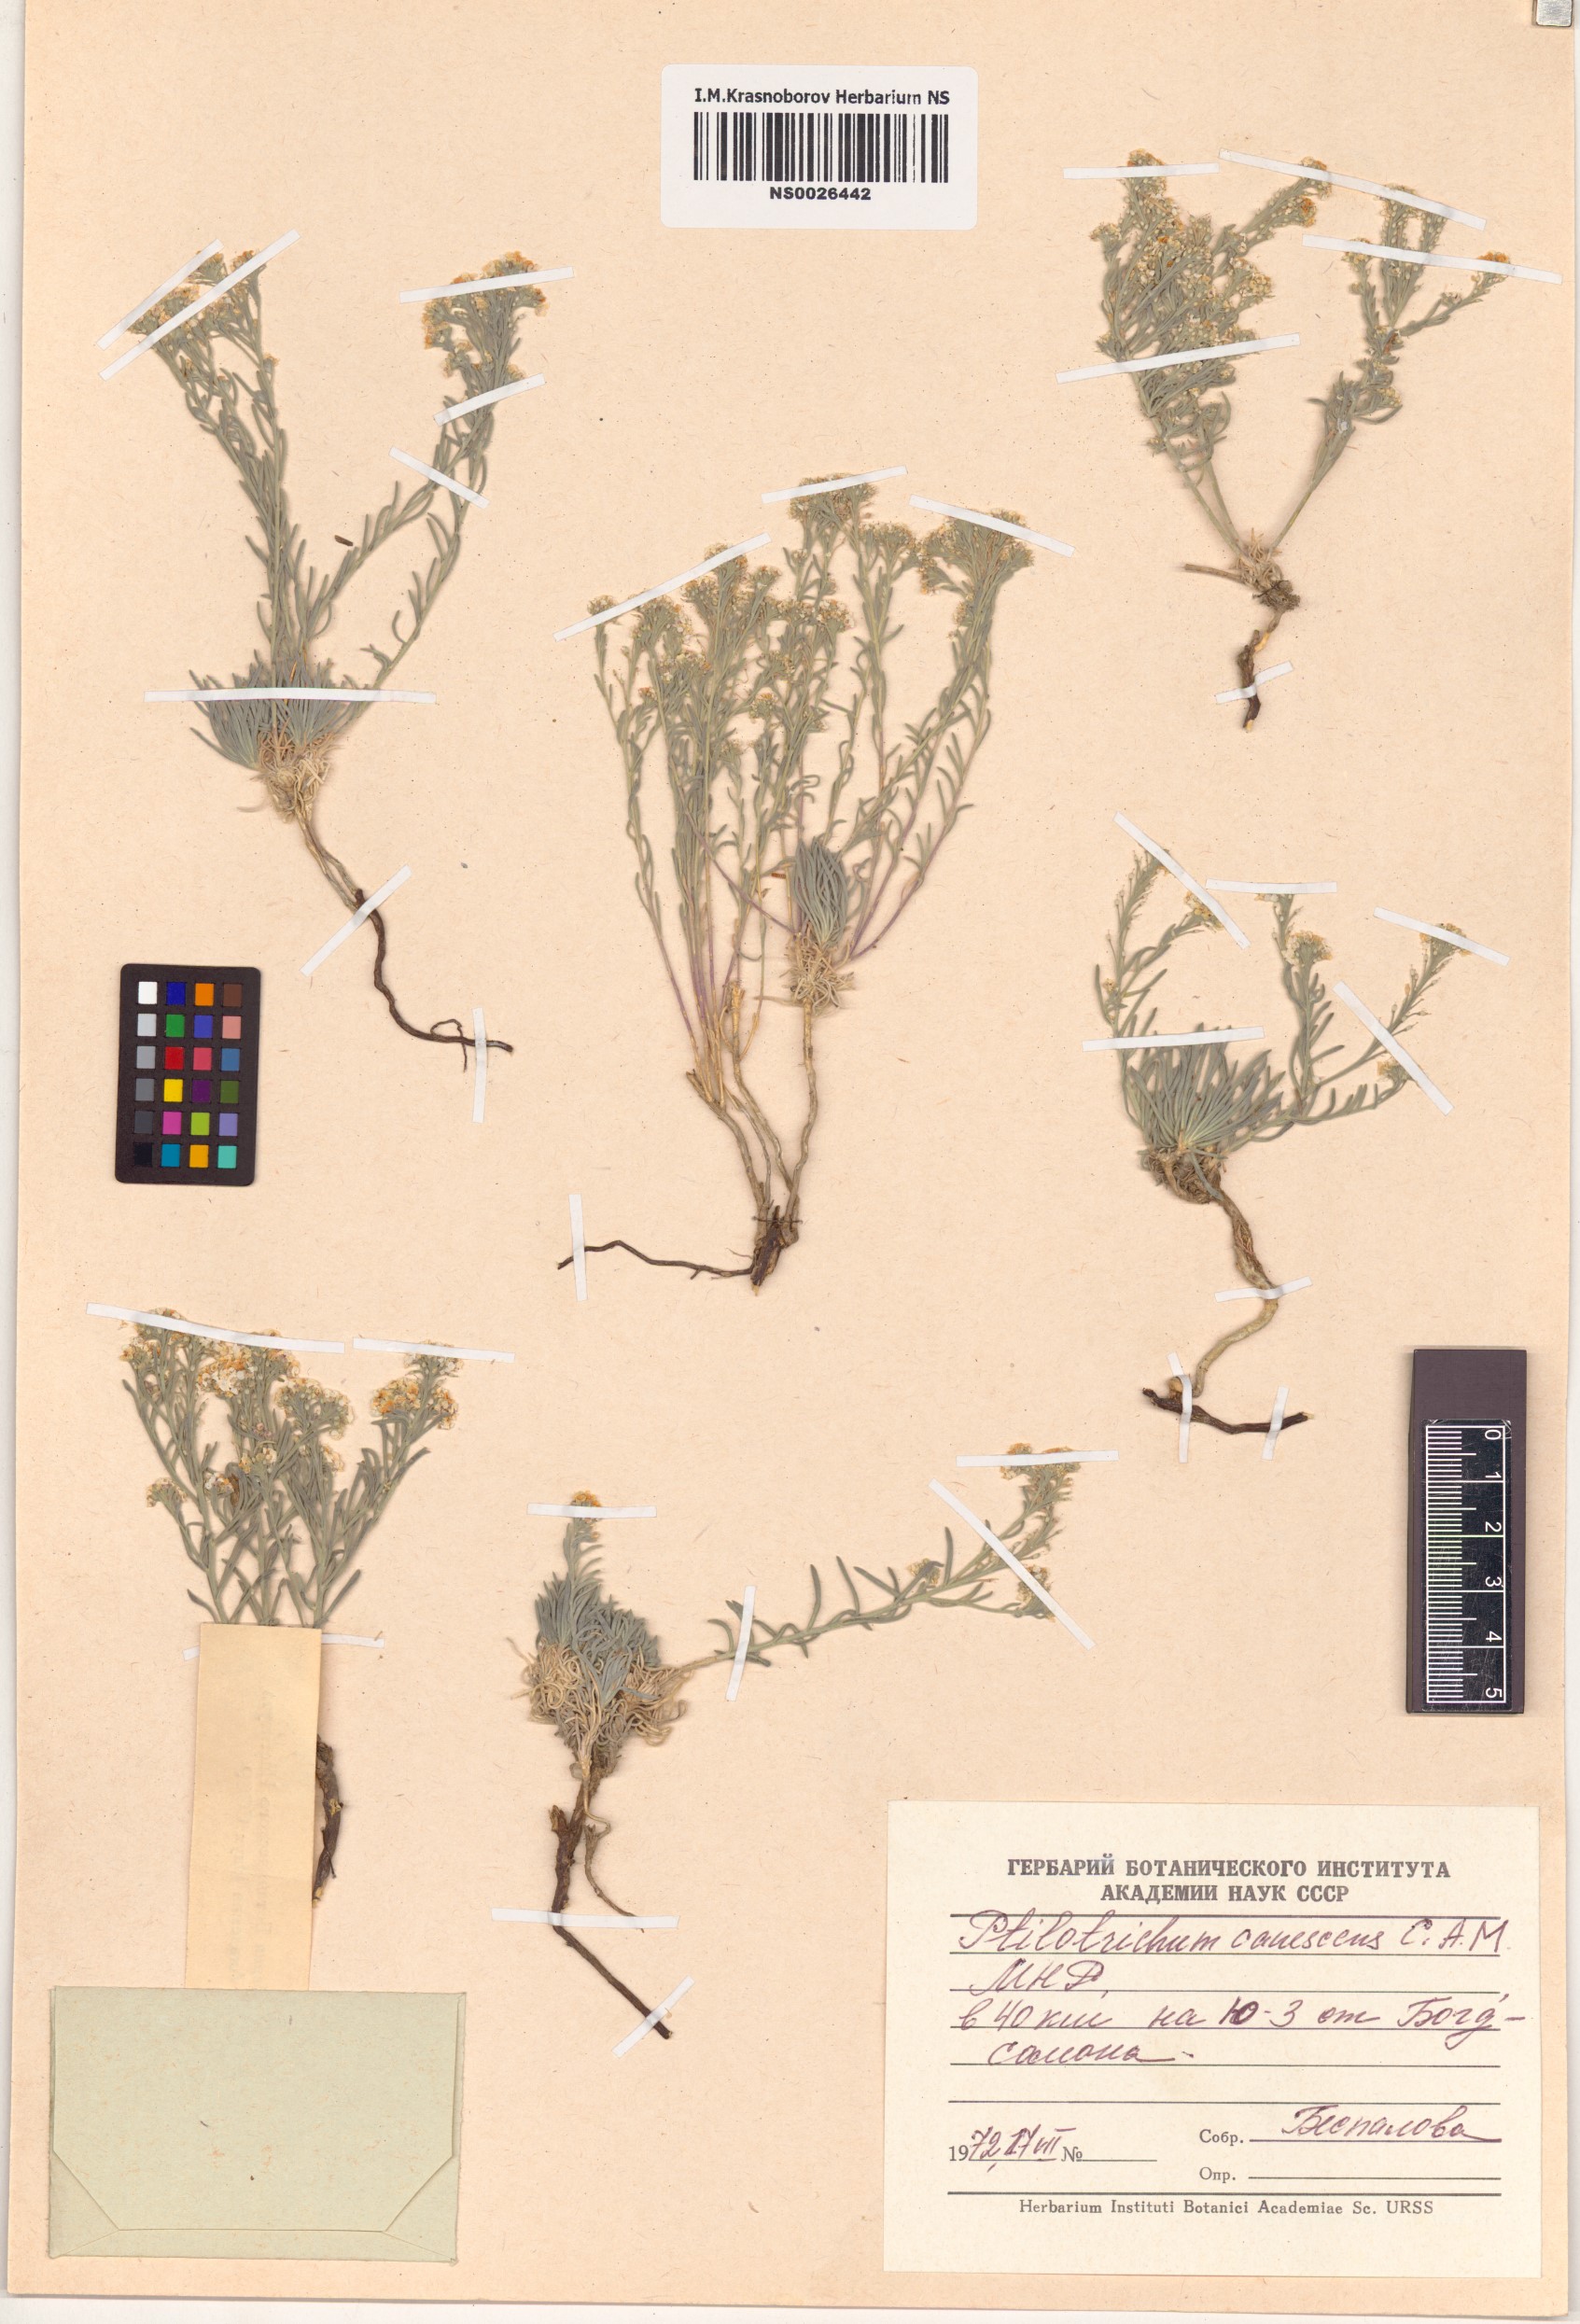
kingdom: Plantae
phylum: Tracheophyta
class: Magnoliopsida
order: Brassicales
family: Brassicaceae
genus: Stevenia
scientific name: Stevenia canescens
